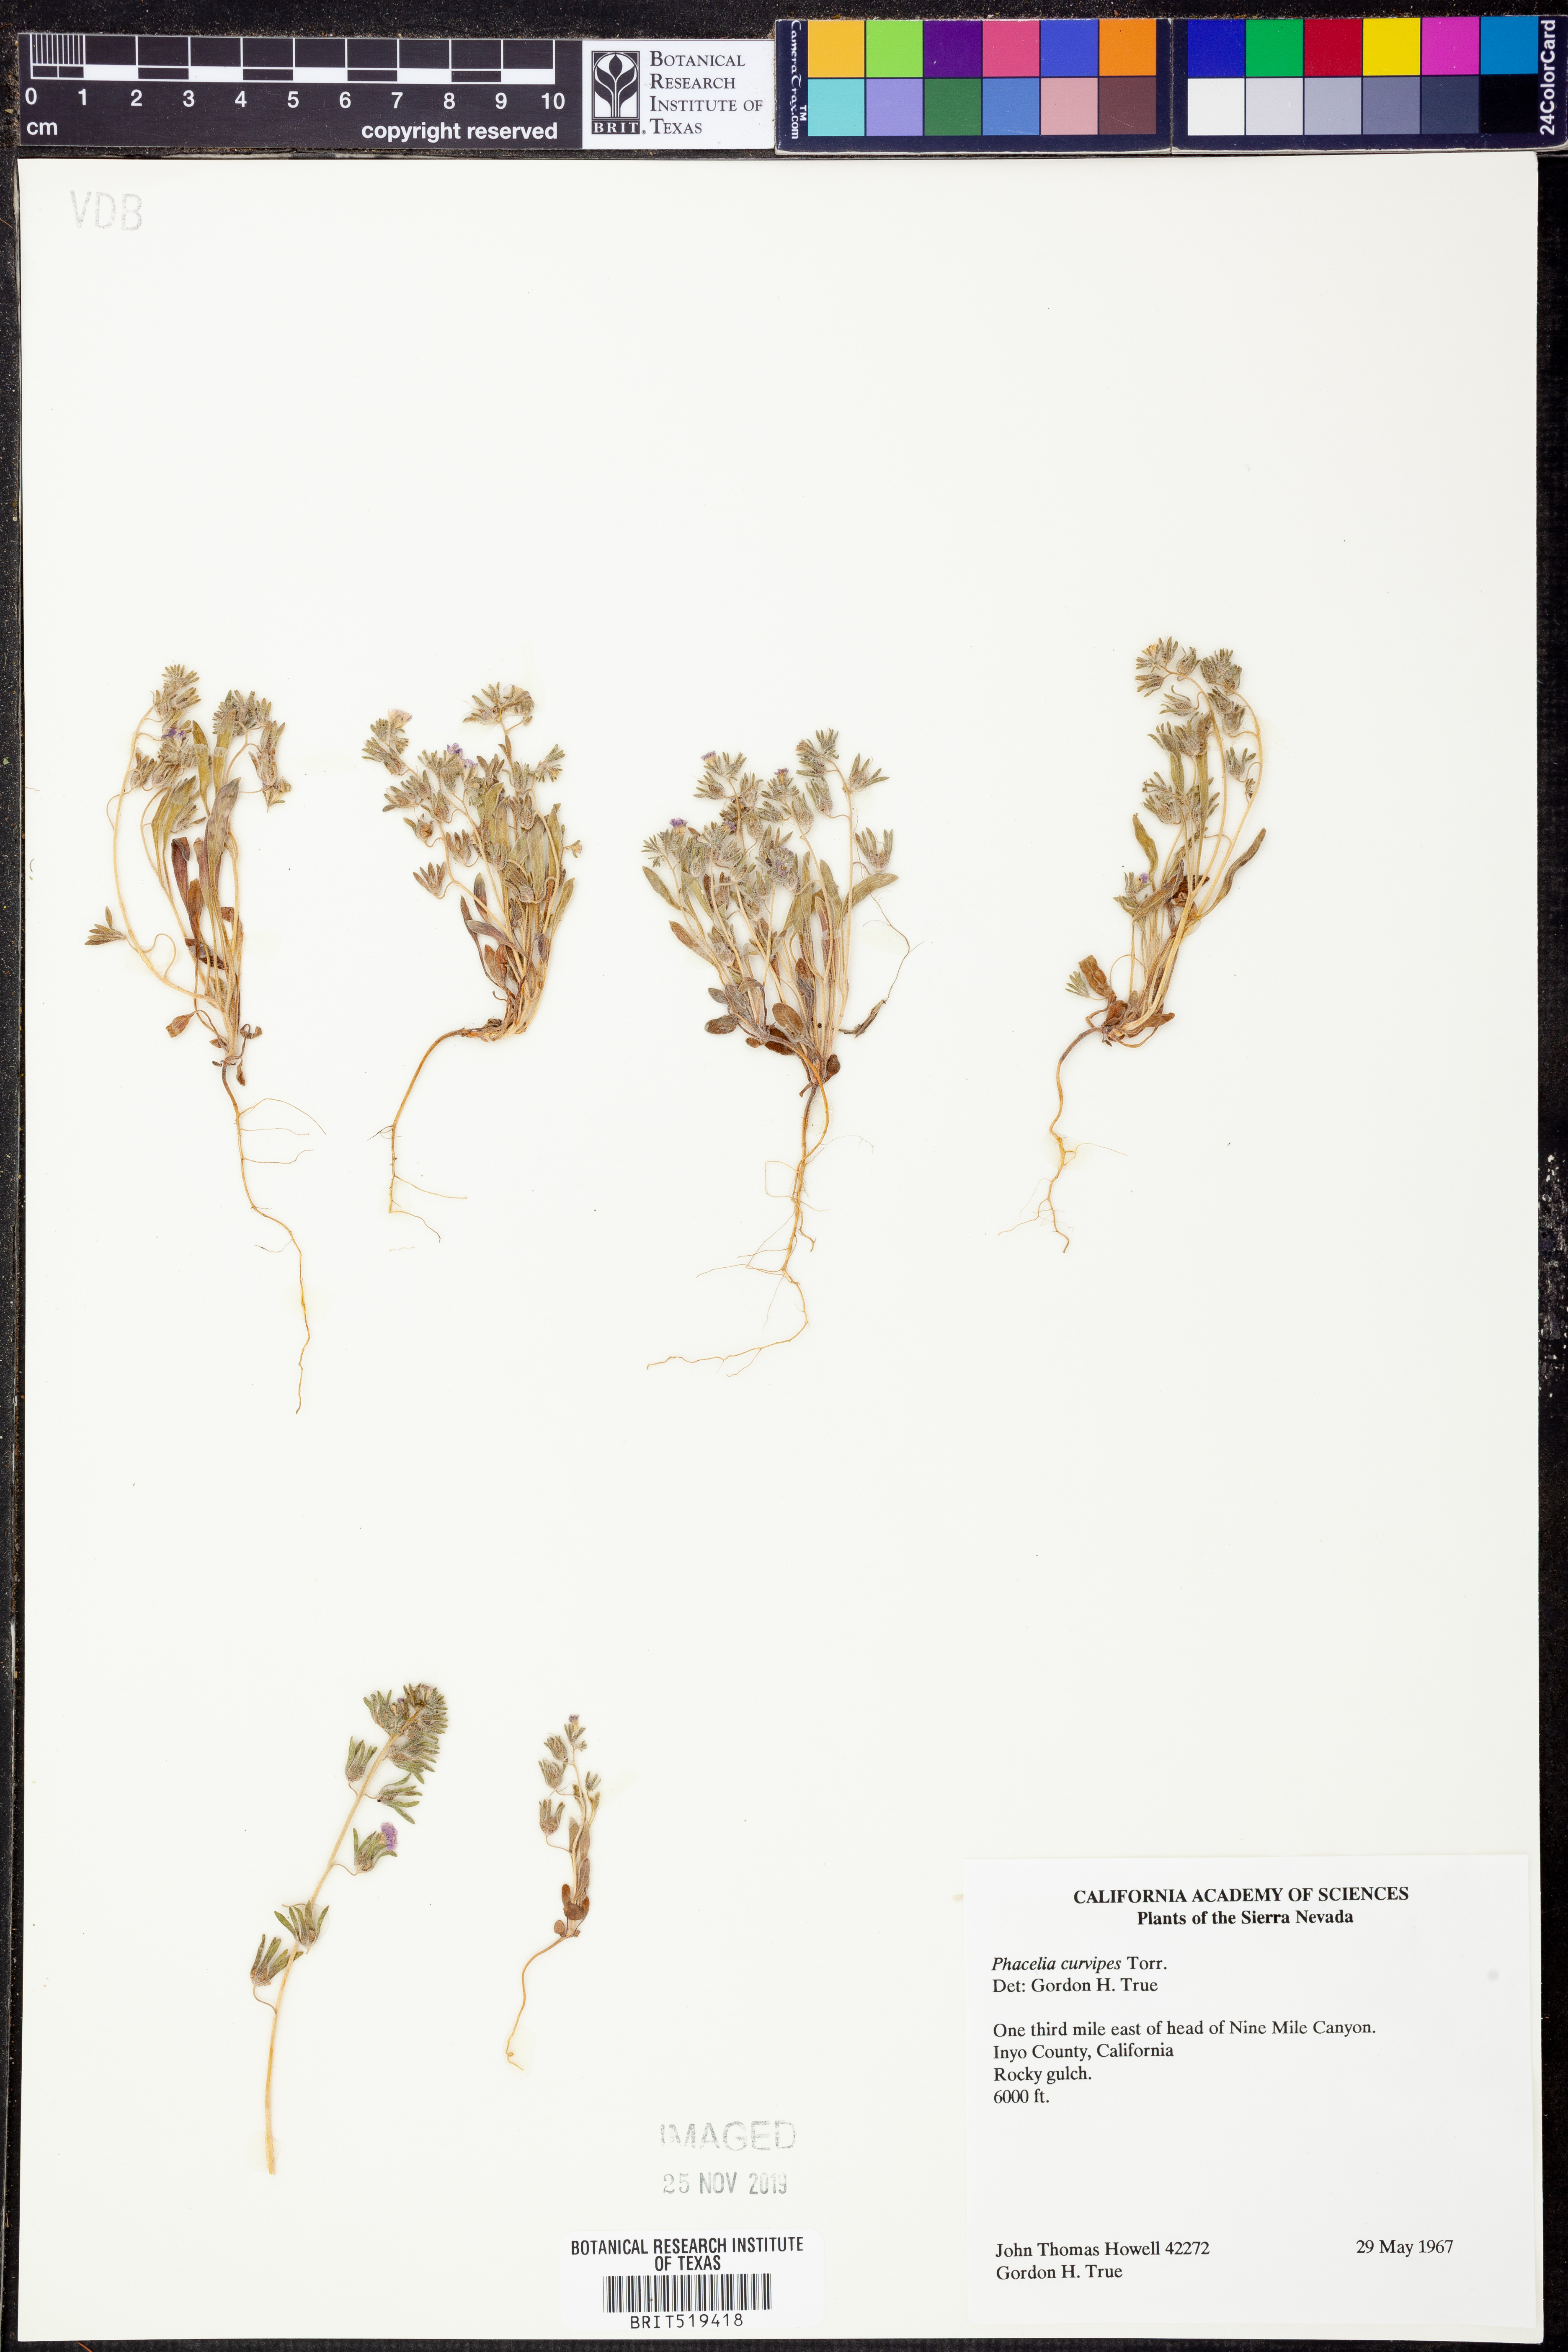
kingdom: Plantae
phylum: Tracheophyta
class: Magnoliopsida
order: Boraginales
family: Hydrophyllaceae
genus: Phacelia
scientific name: Phacelia curvipes
